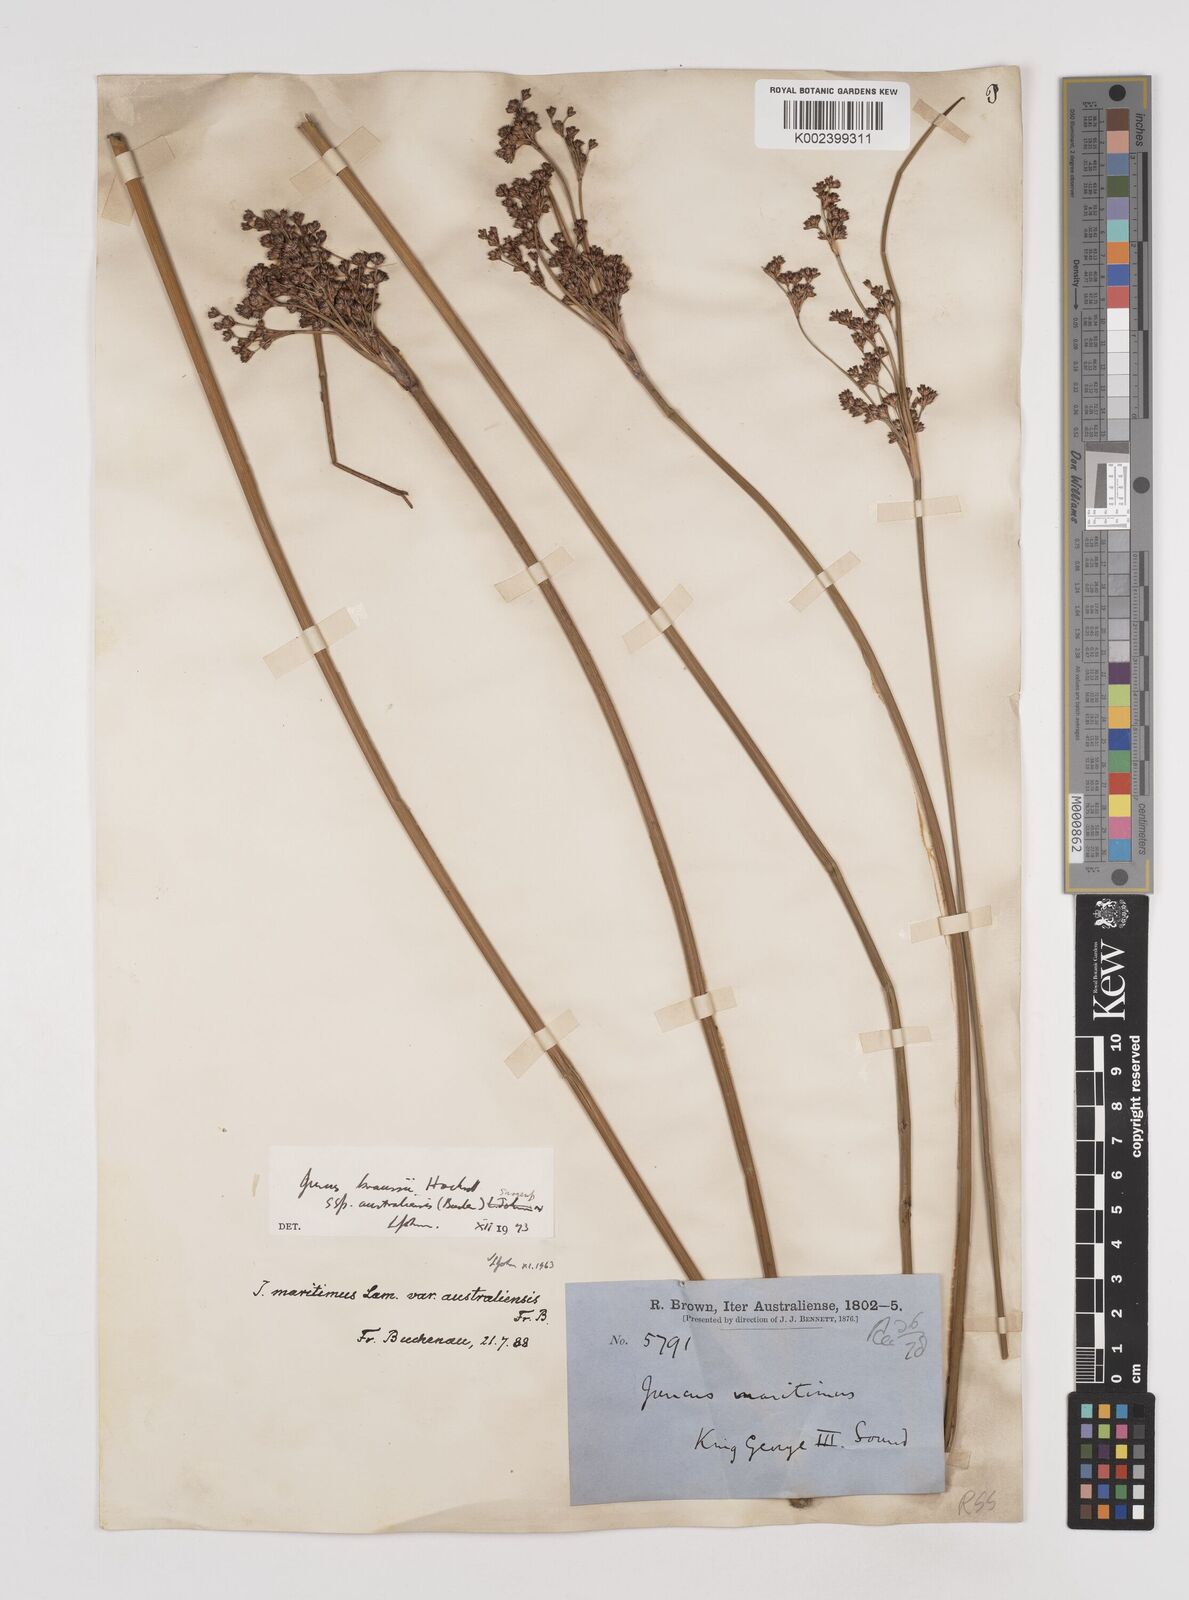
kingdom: Plantae
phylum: Tracheophyta
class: Liliopsida
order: Poales
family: Juncaceae
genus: Juncus
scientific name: Juncus kraussii
